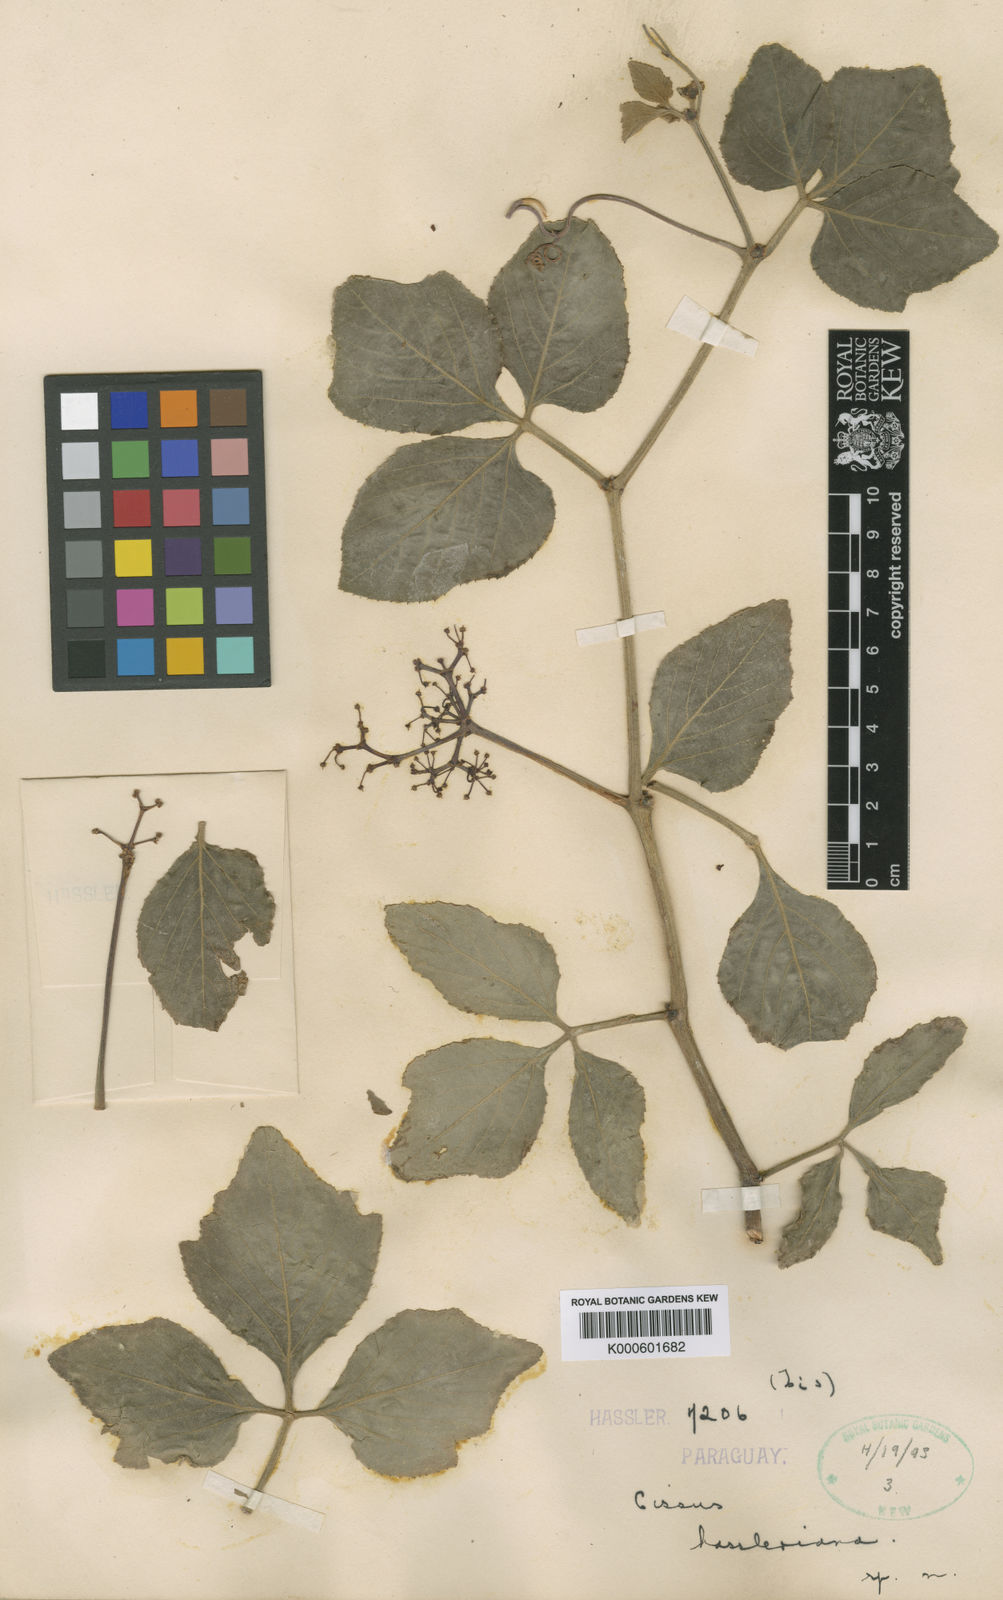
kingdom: Plantae
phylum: Tracheophyta
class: Magnoliopsida
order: Vitales
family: Vitaceae
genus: Cissus
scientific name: Cissus spinosa
